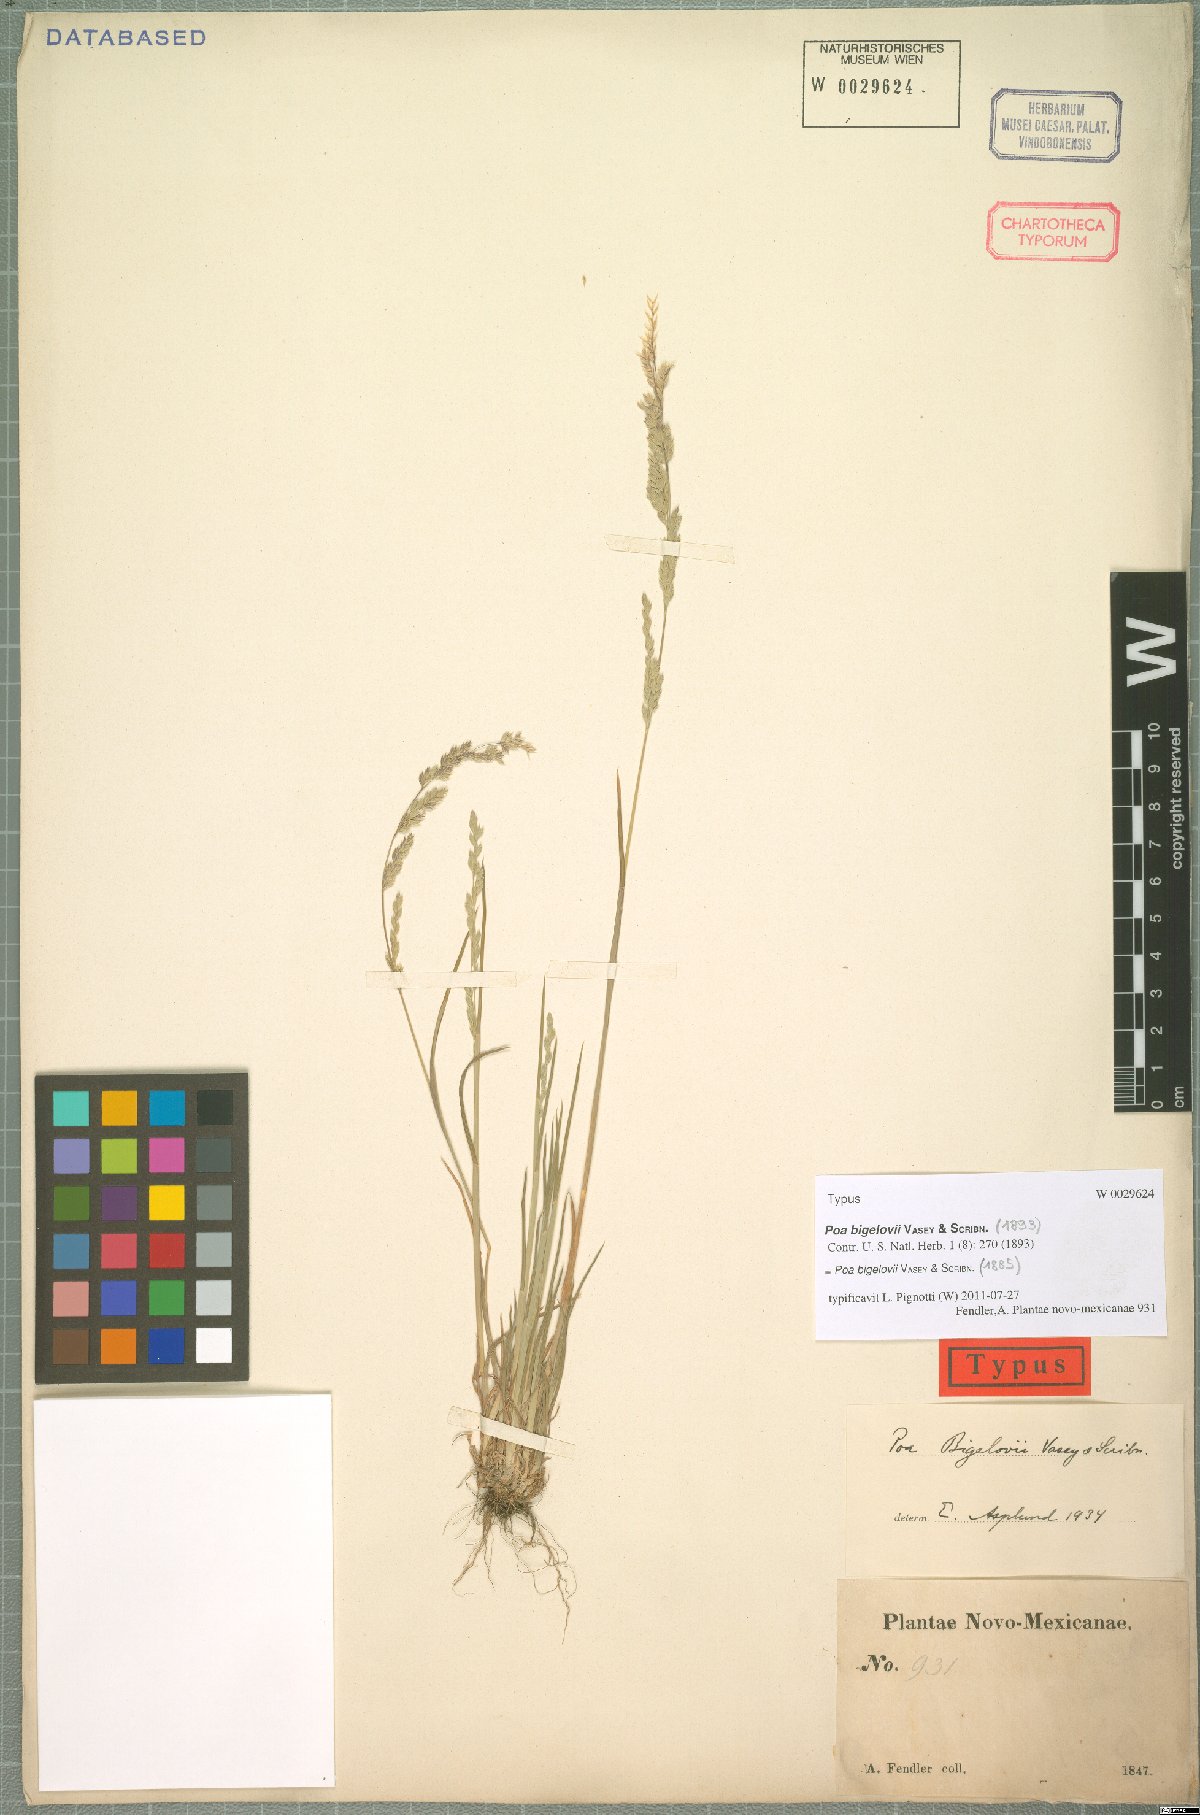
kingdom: Plantae
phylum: Tracheophyta
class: Liliopsida
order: Poales
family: Poaceae
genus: Poa
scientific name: Poa bigelovii
